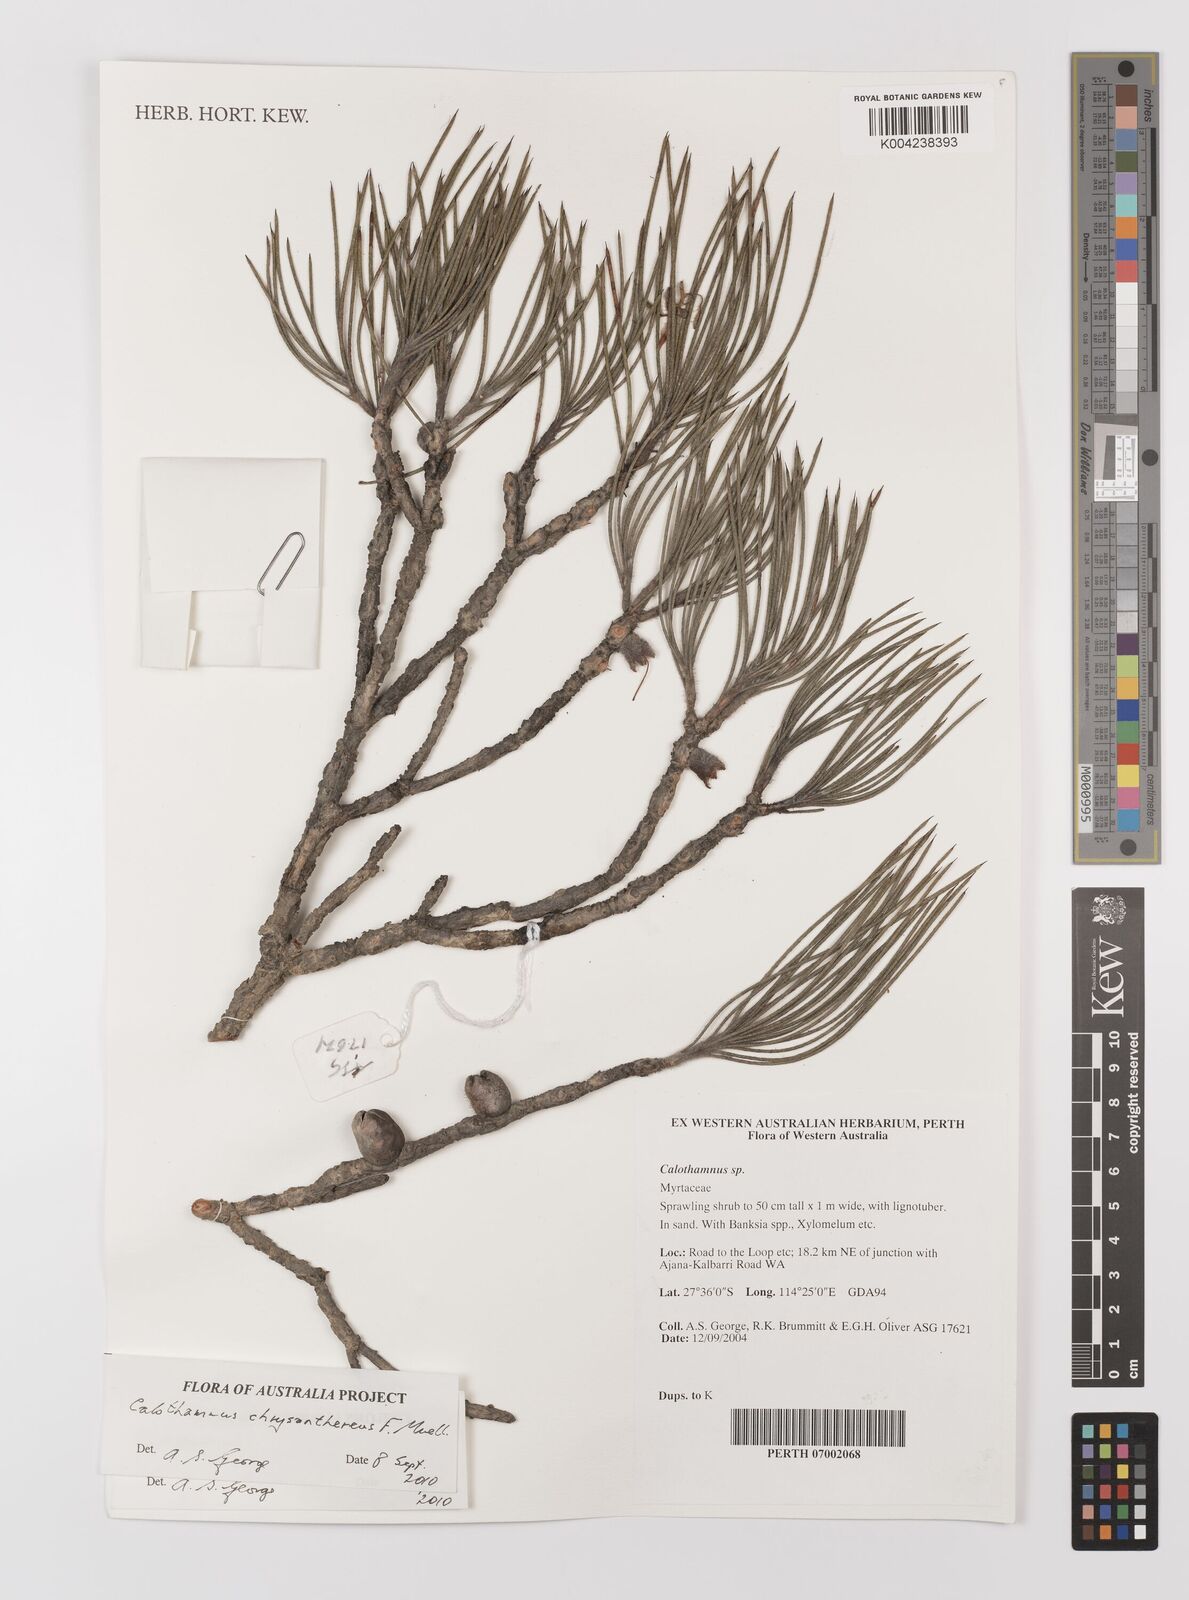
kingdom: Plantae
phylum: Tracheophyta
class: Magnoliopsida
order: Myrtales
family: Myrtaceae
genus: Melaleuca
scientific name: Melaleuca chrysantherea
